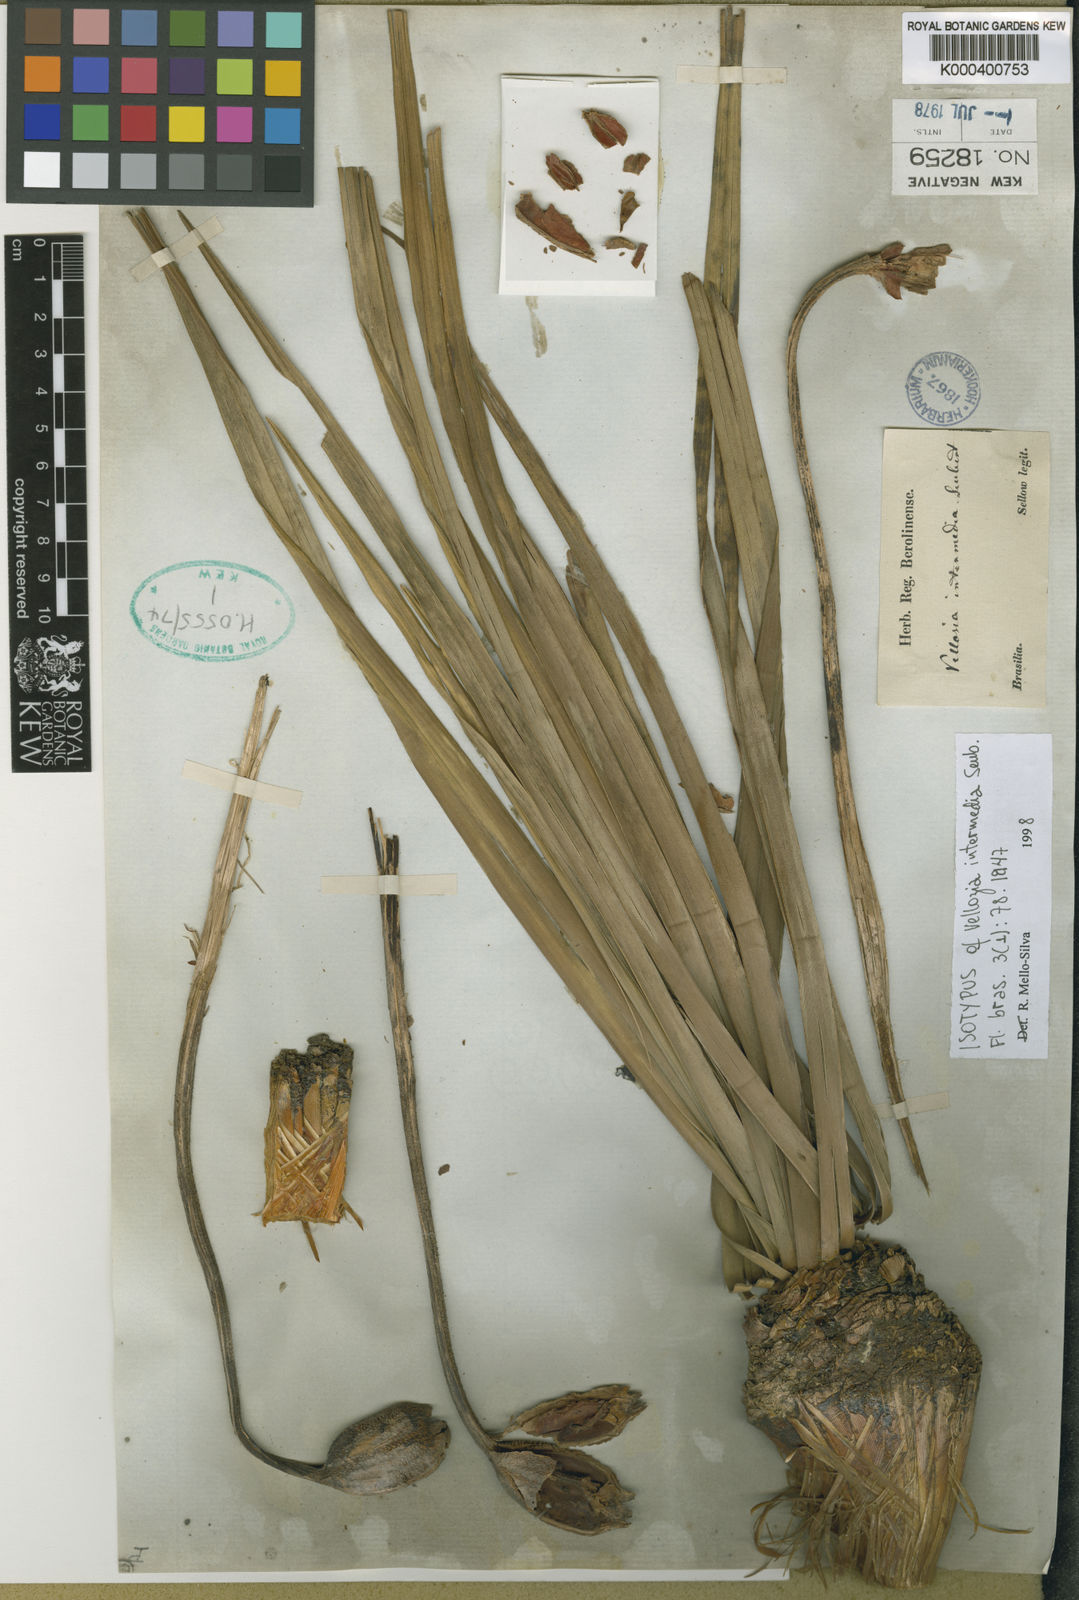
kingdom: Plantae
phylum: Tracheophyta
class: Liliopsida
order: Pandanales
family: Velloziaceae
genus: Vellozia
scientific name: Vellozia intermedia
